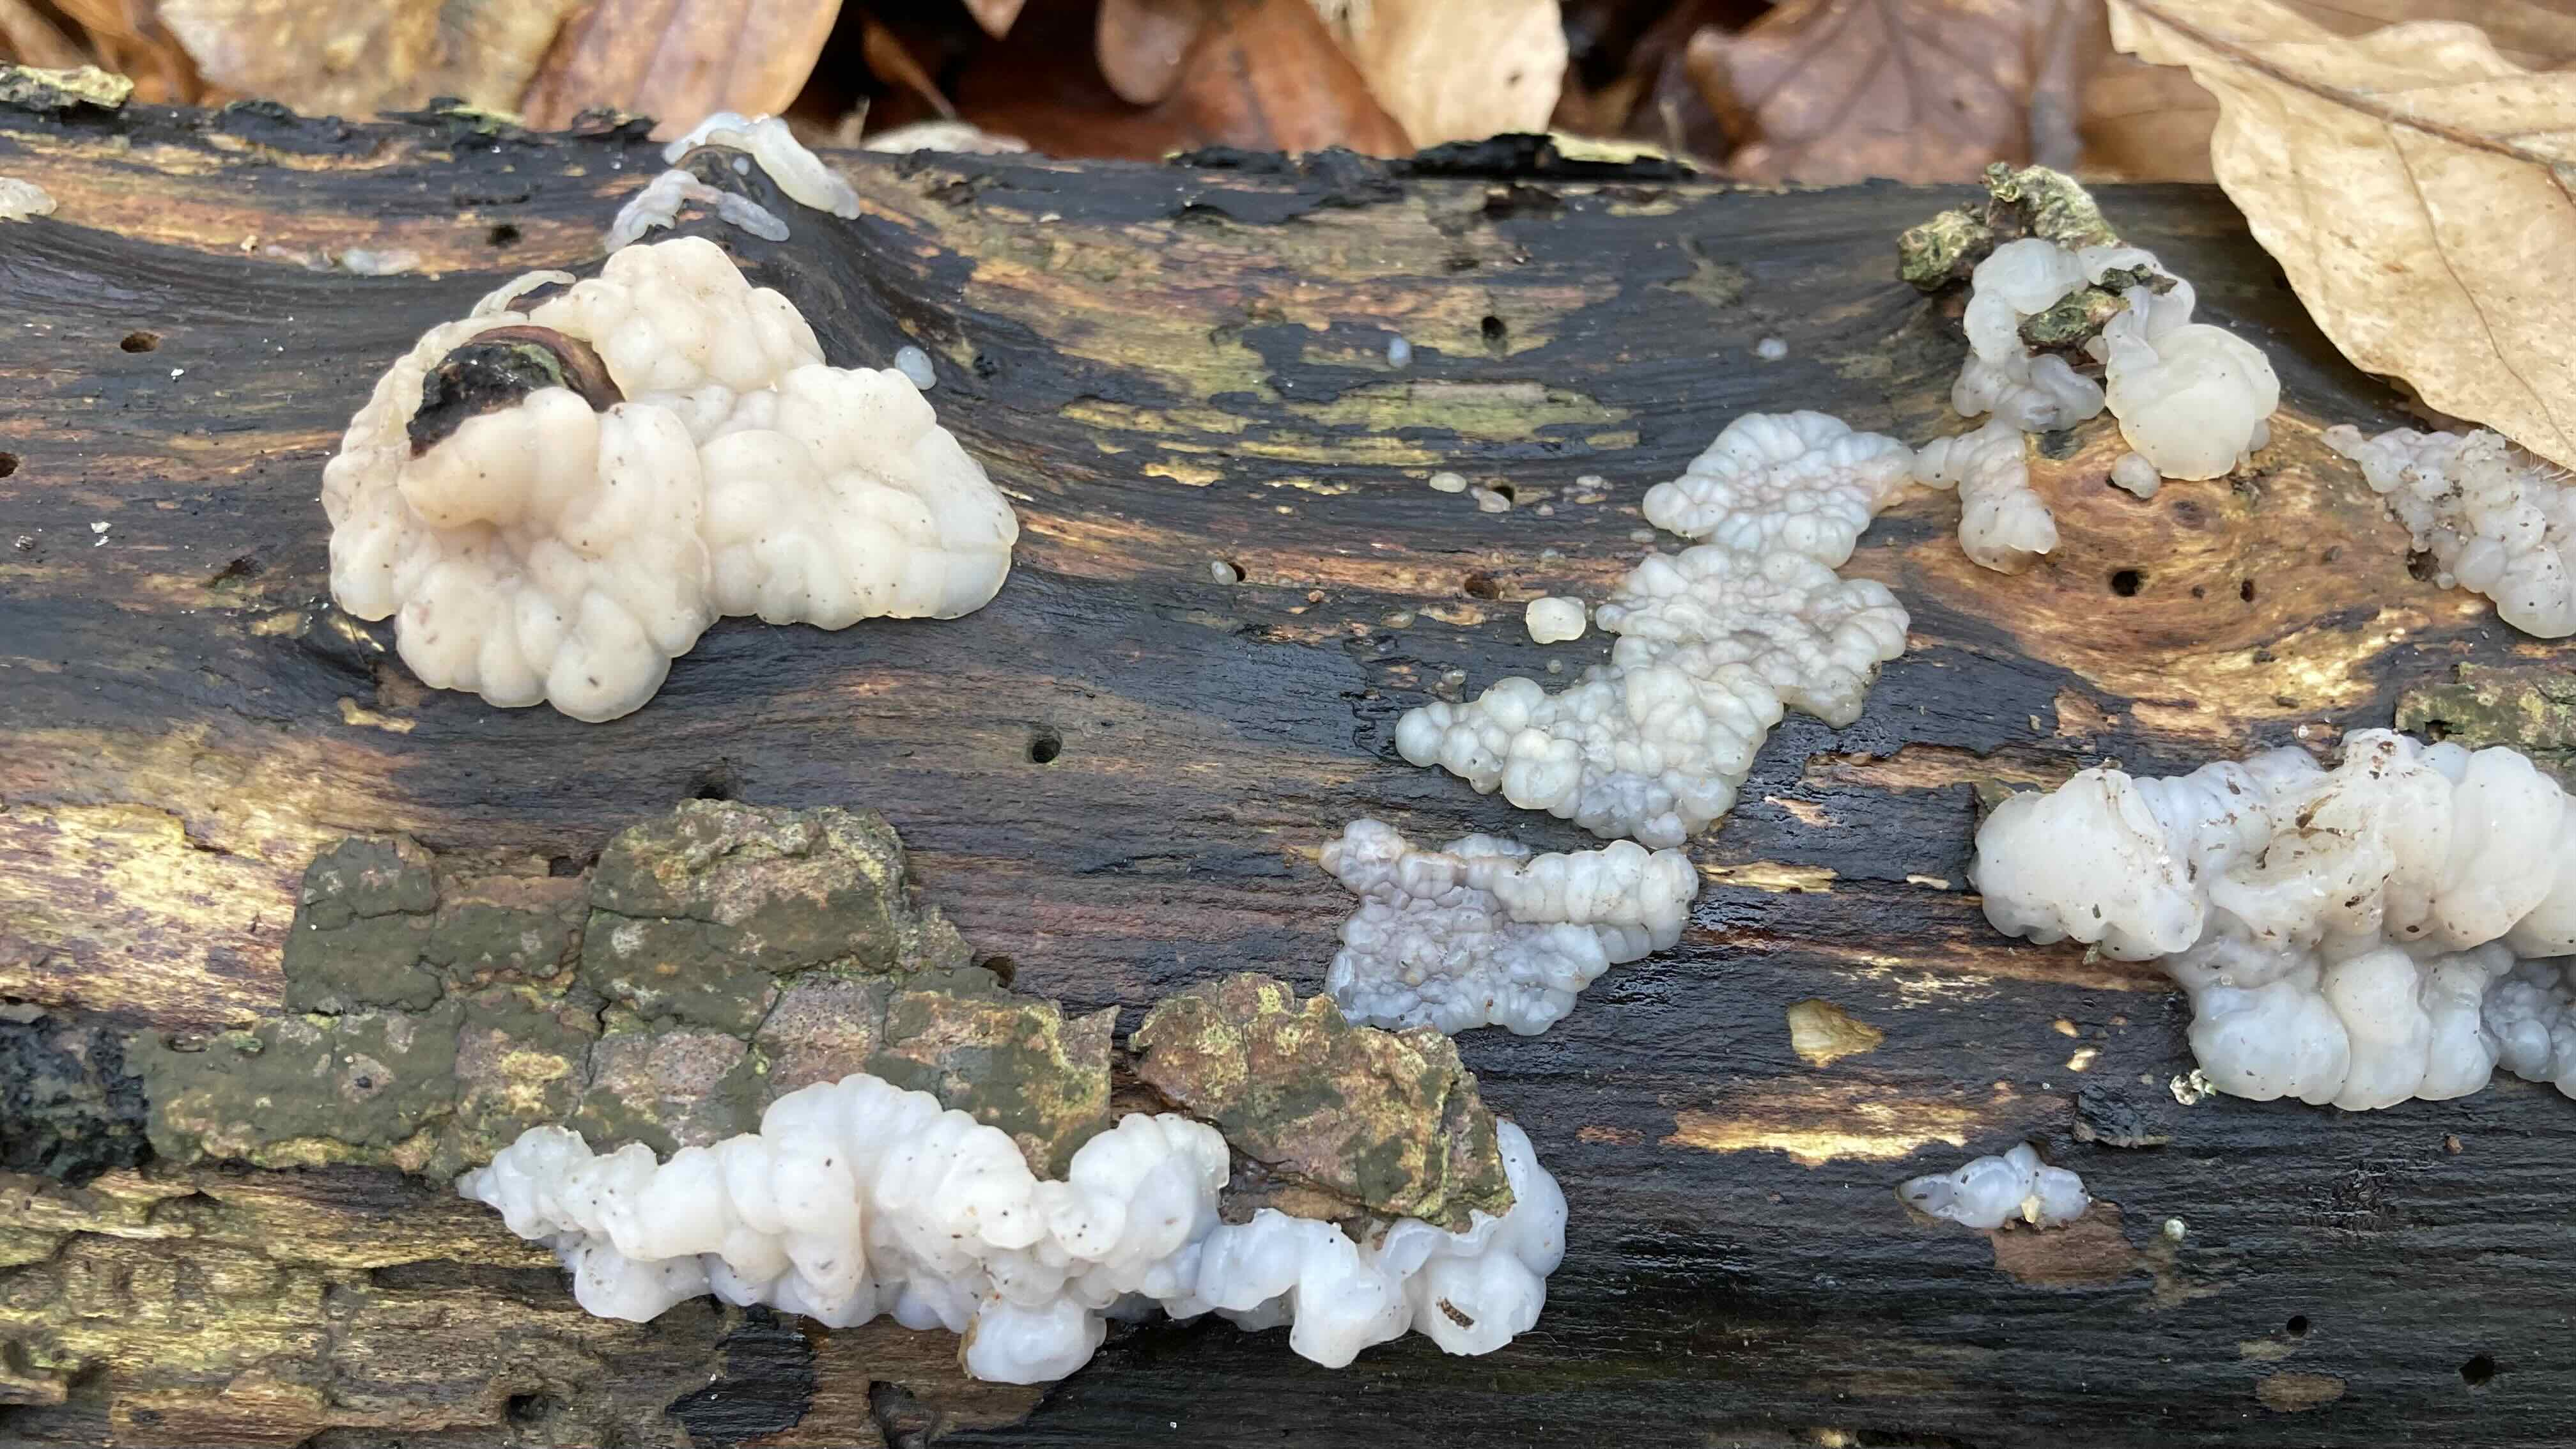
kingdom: Fungi
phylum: Basidiomycota
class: Agaricomycetes
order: Auriculariales
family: Auriculariaceae
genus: Exidia
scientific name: Exidia thuretiana
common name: hvidlig bævretop
